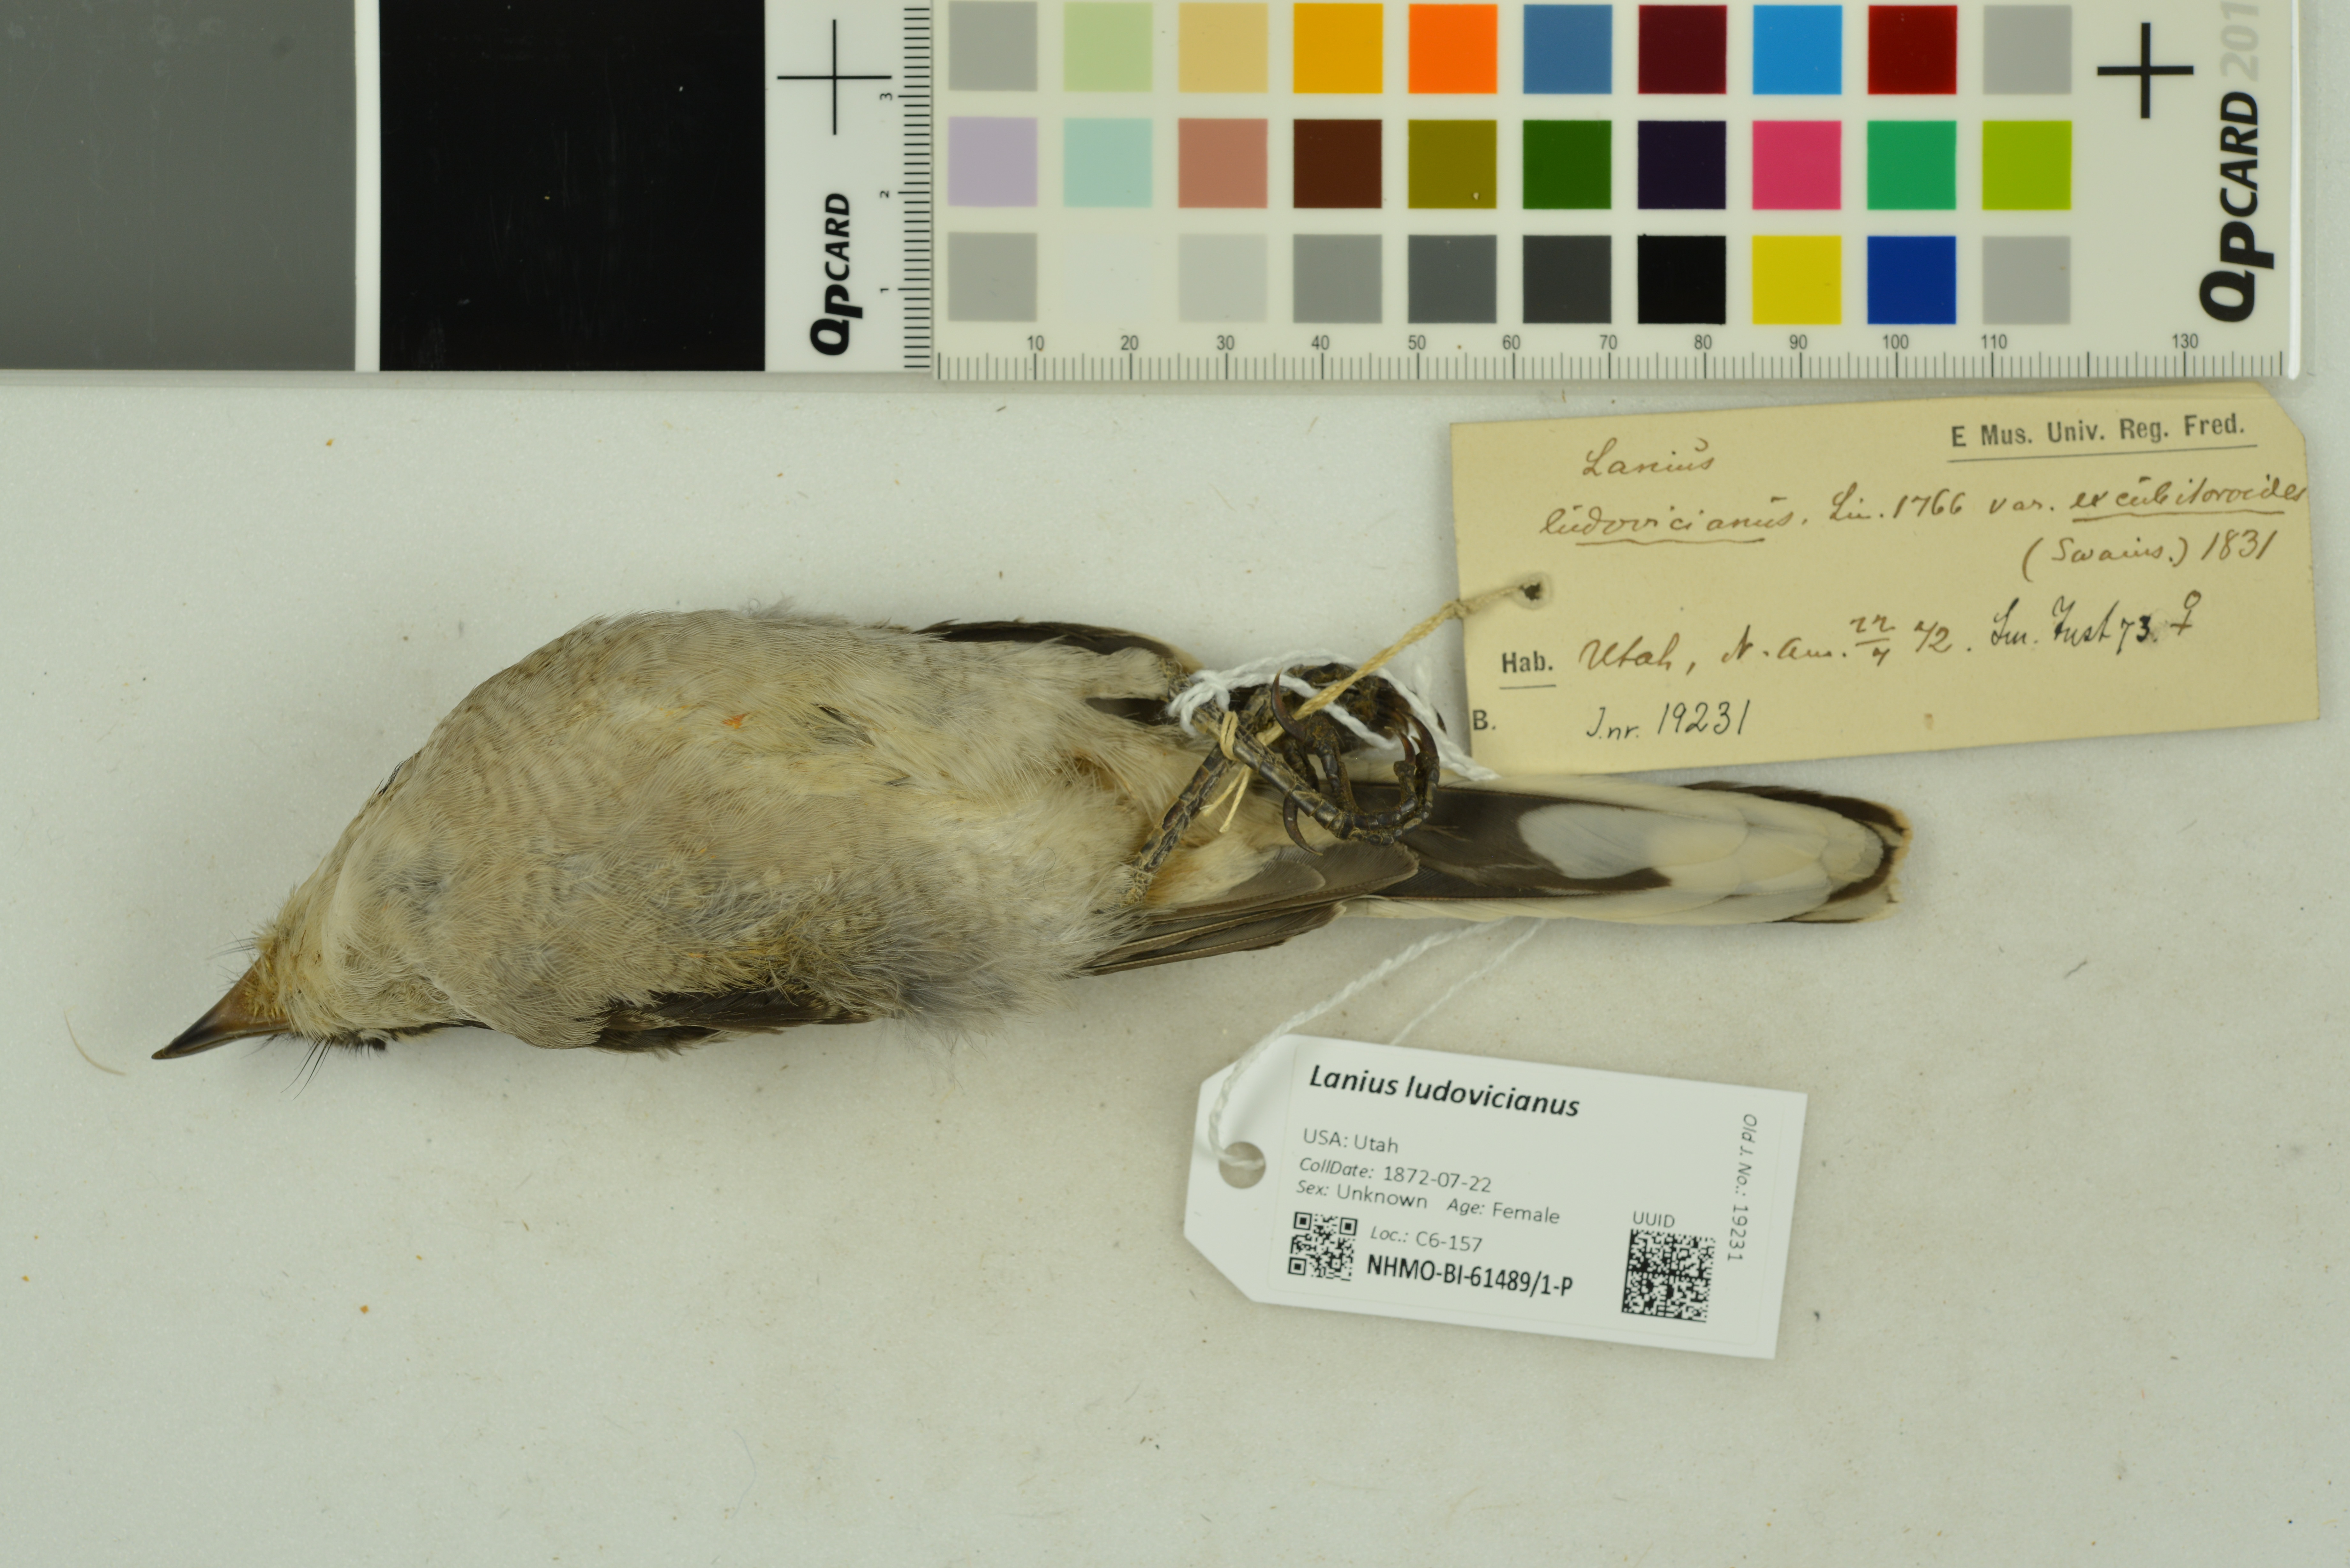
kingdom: Animalia
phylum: Chordata
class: Aves
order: Passeriformes
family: Laniidae
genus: Lanius
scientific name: Lanius ludovicianus
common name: Loggerhead shrike
